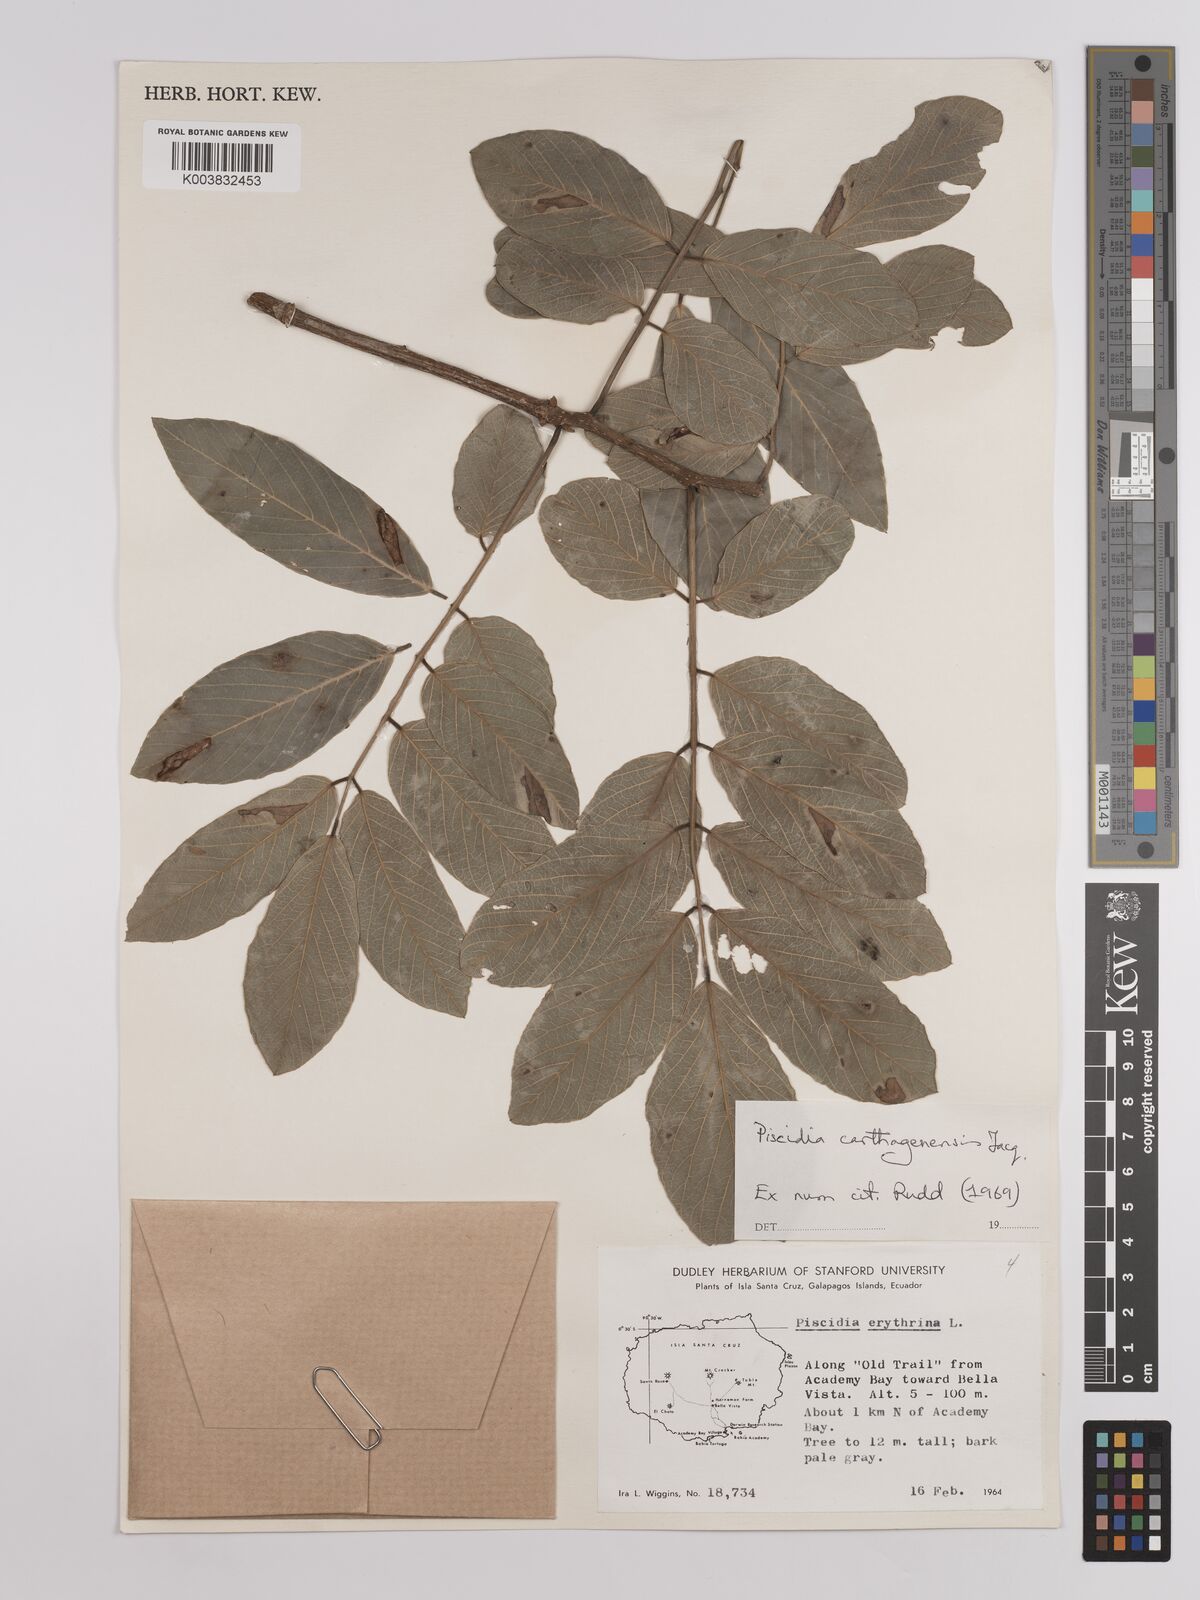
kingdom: Plantae
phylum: Tracheophyta
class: Magnoliopsida
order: Fabales
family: Fabaceae
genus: Piscidia
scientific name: Piscidia carthagenensis
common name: Stinkwood
